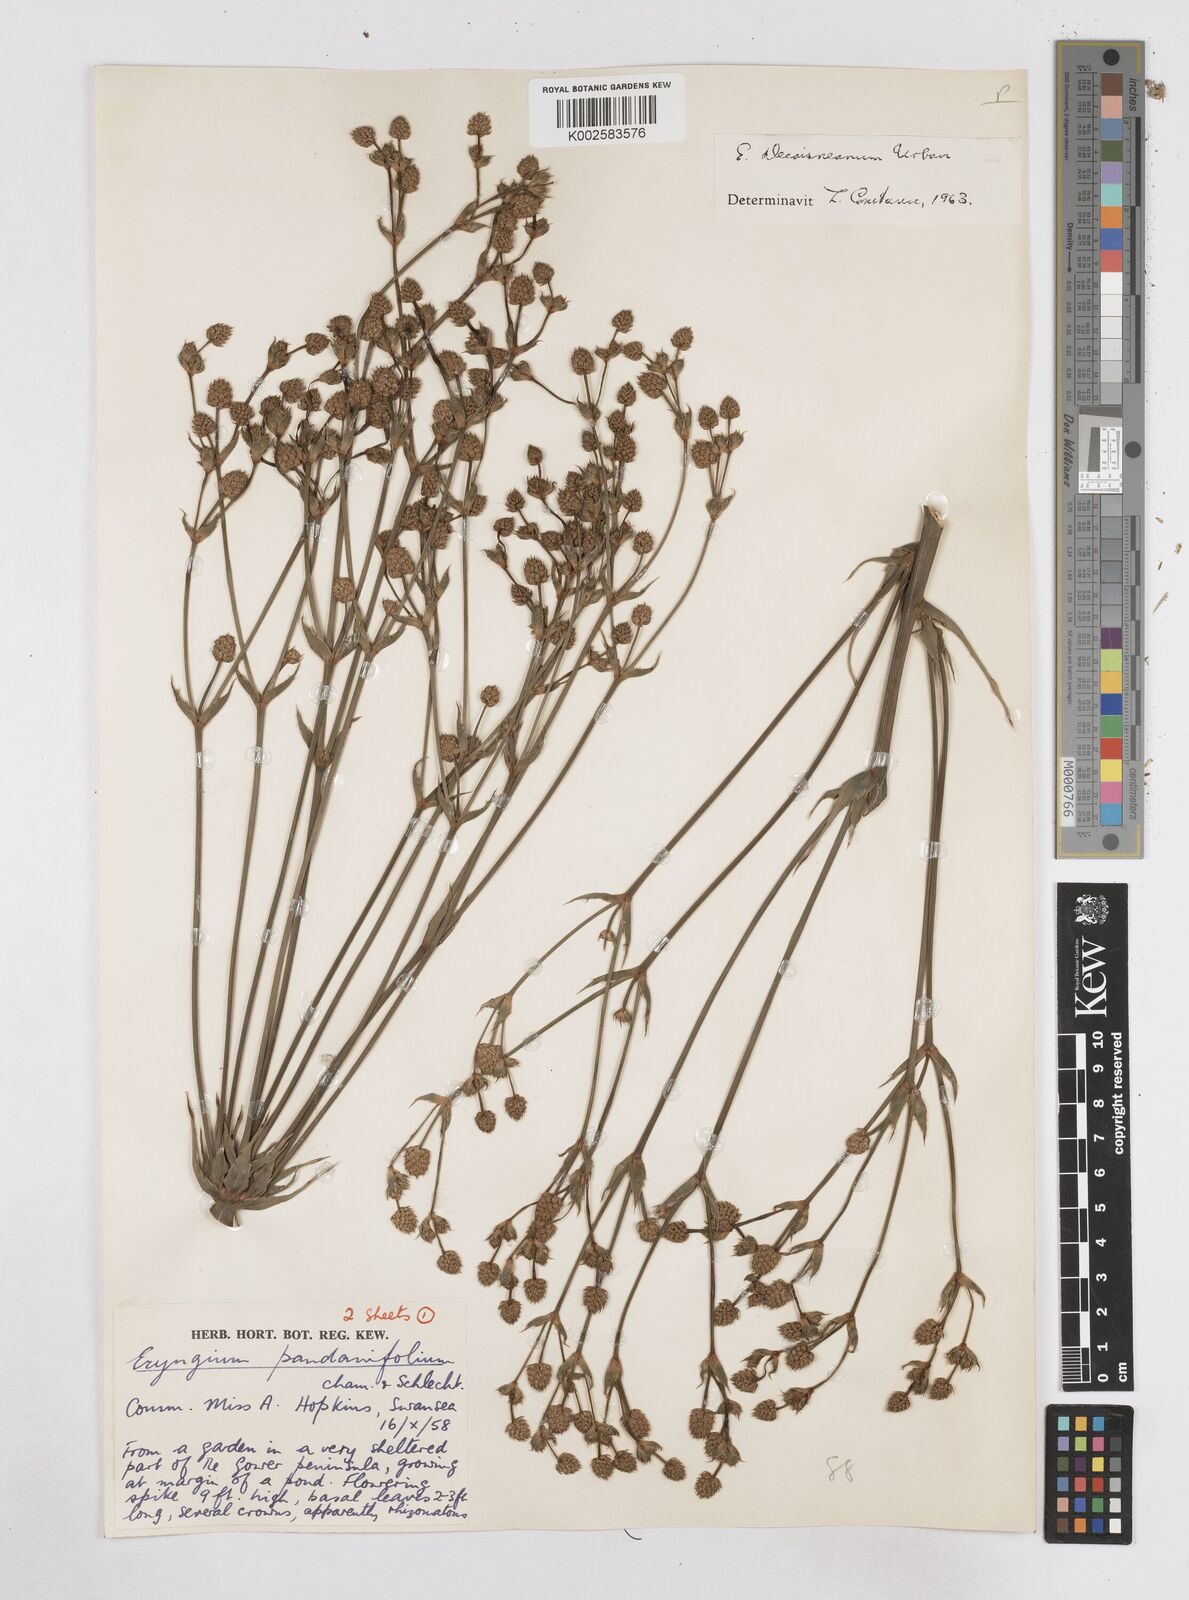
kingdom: Plantae
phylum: Tracheophyta
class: Magnoliopsida
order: Apiales
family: Apiaceae
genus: Eryngium
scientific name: Eryngium pandanifolium
